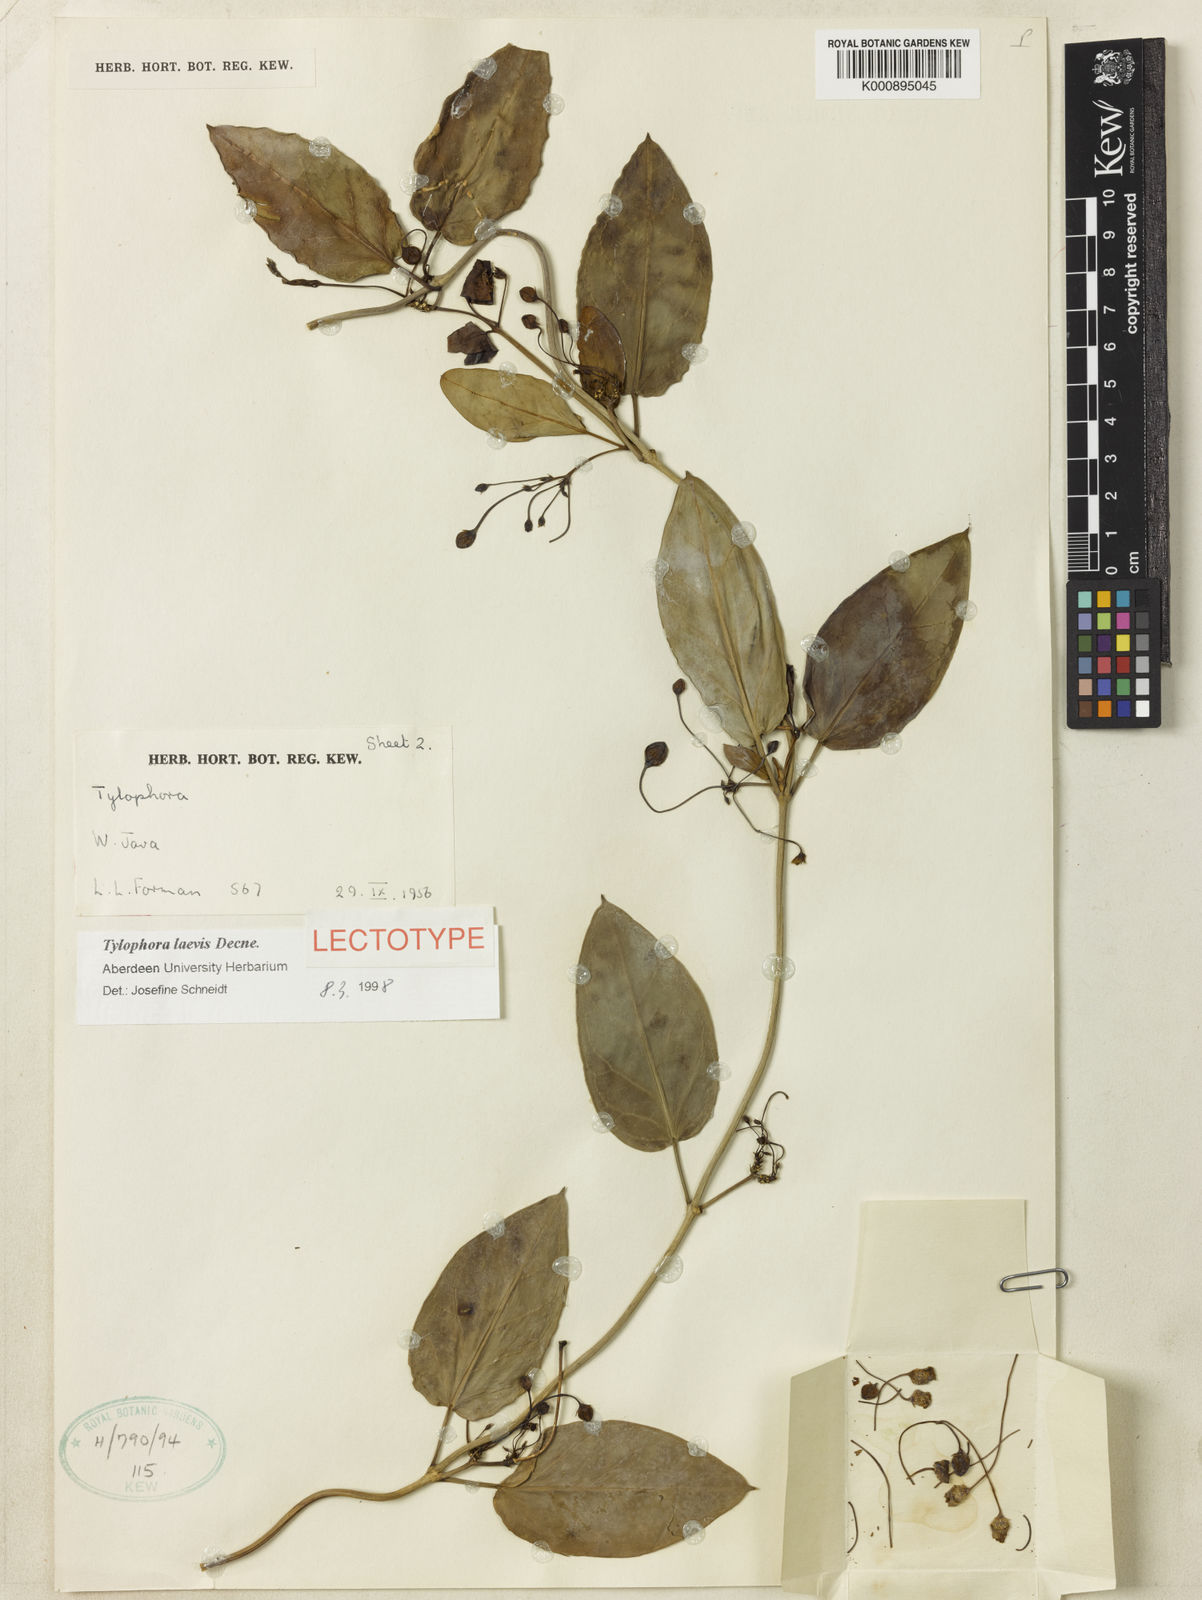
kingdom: Plantae
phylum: Tracheophyta
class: Magnoliopsida
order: Gentianales
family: Apocynaceae
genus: Vincetoxicum
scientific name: Vincetoxicum globiferum
